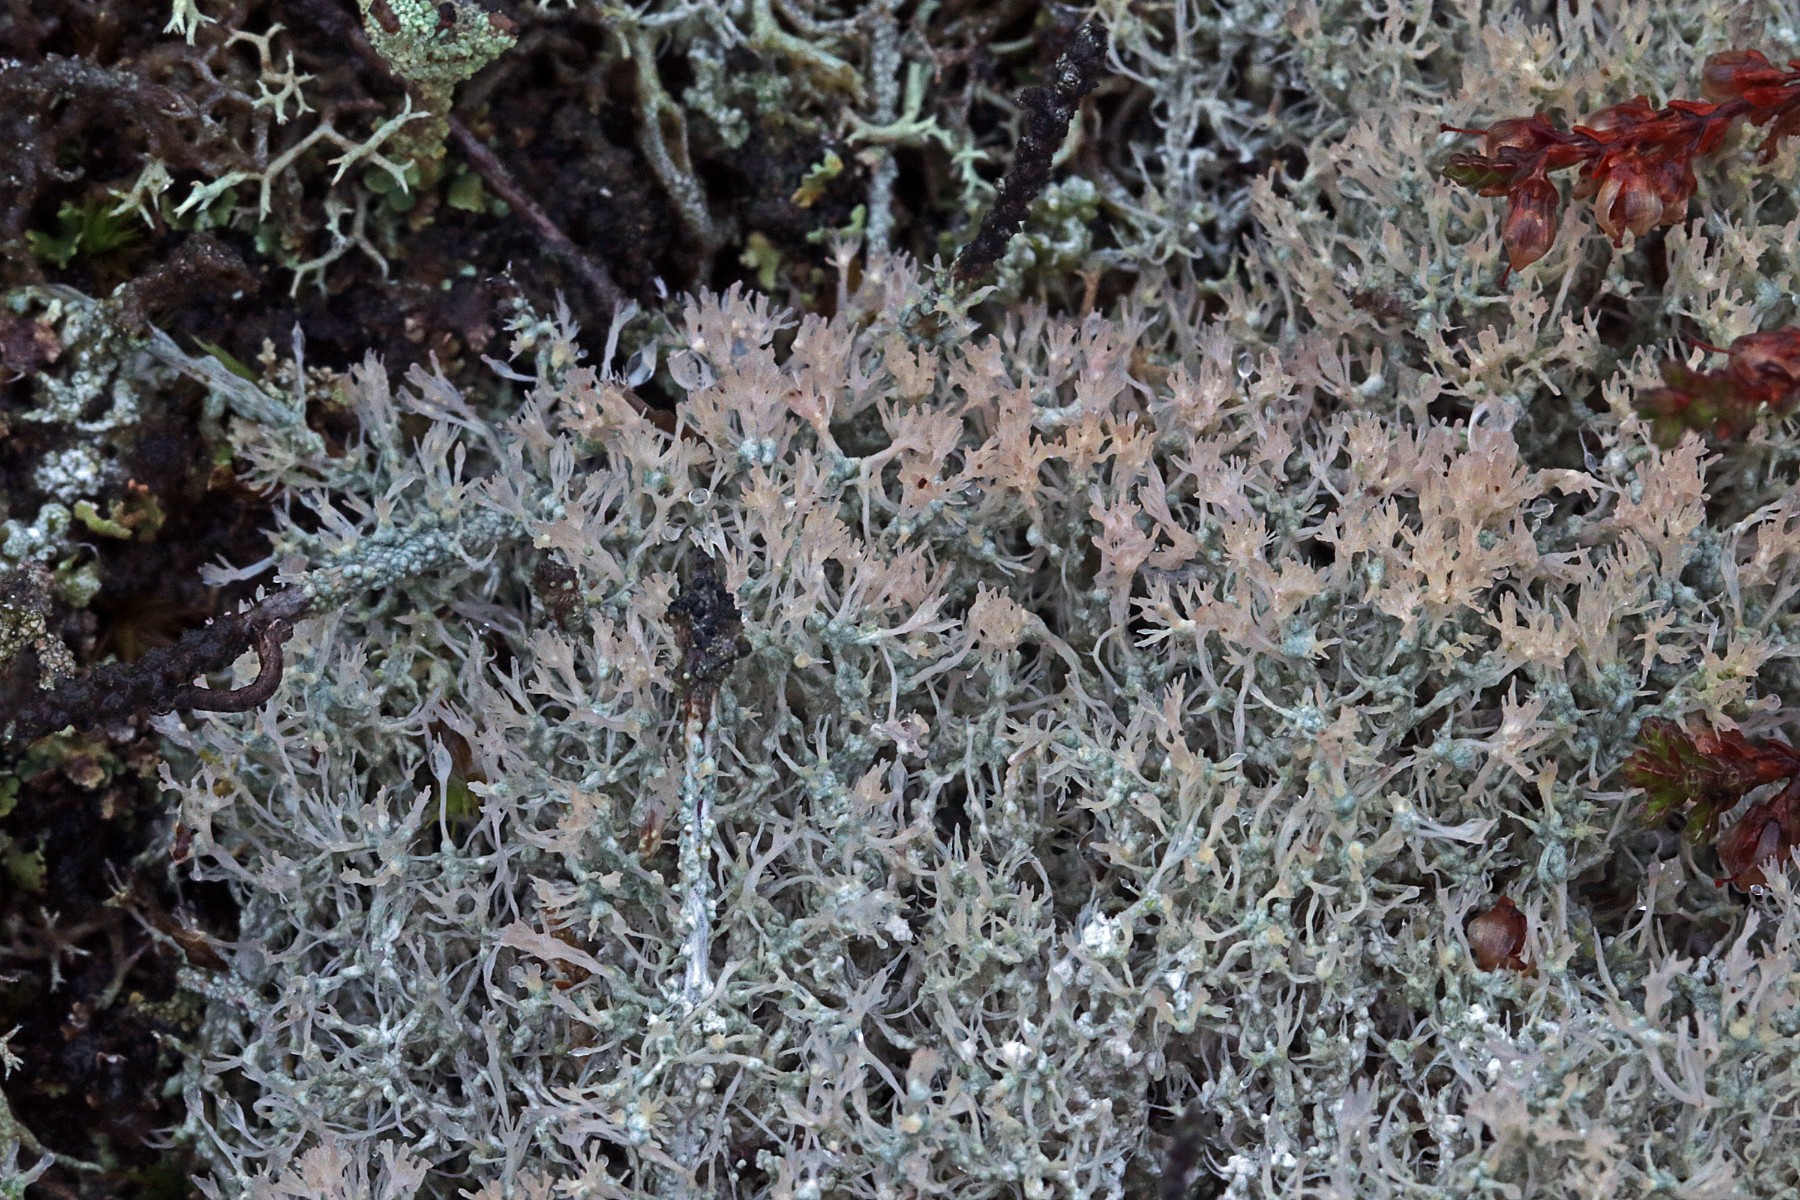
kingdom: Fungi
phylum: Ascomycota
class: Lecanoromycetes
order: Pertusariales
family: Ochrolechiaceae
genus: Ochrolechia
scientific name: Ochrolechia frigida
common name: fjeld-blegskivelav
